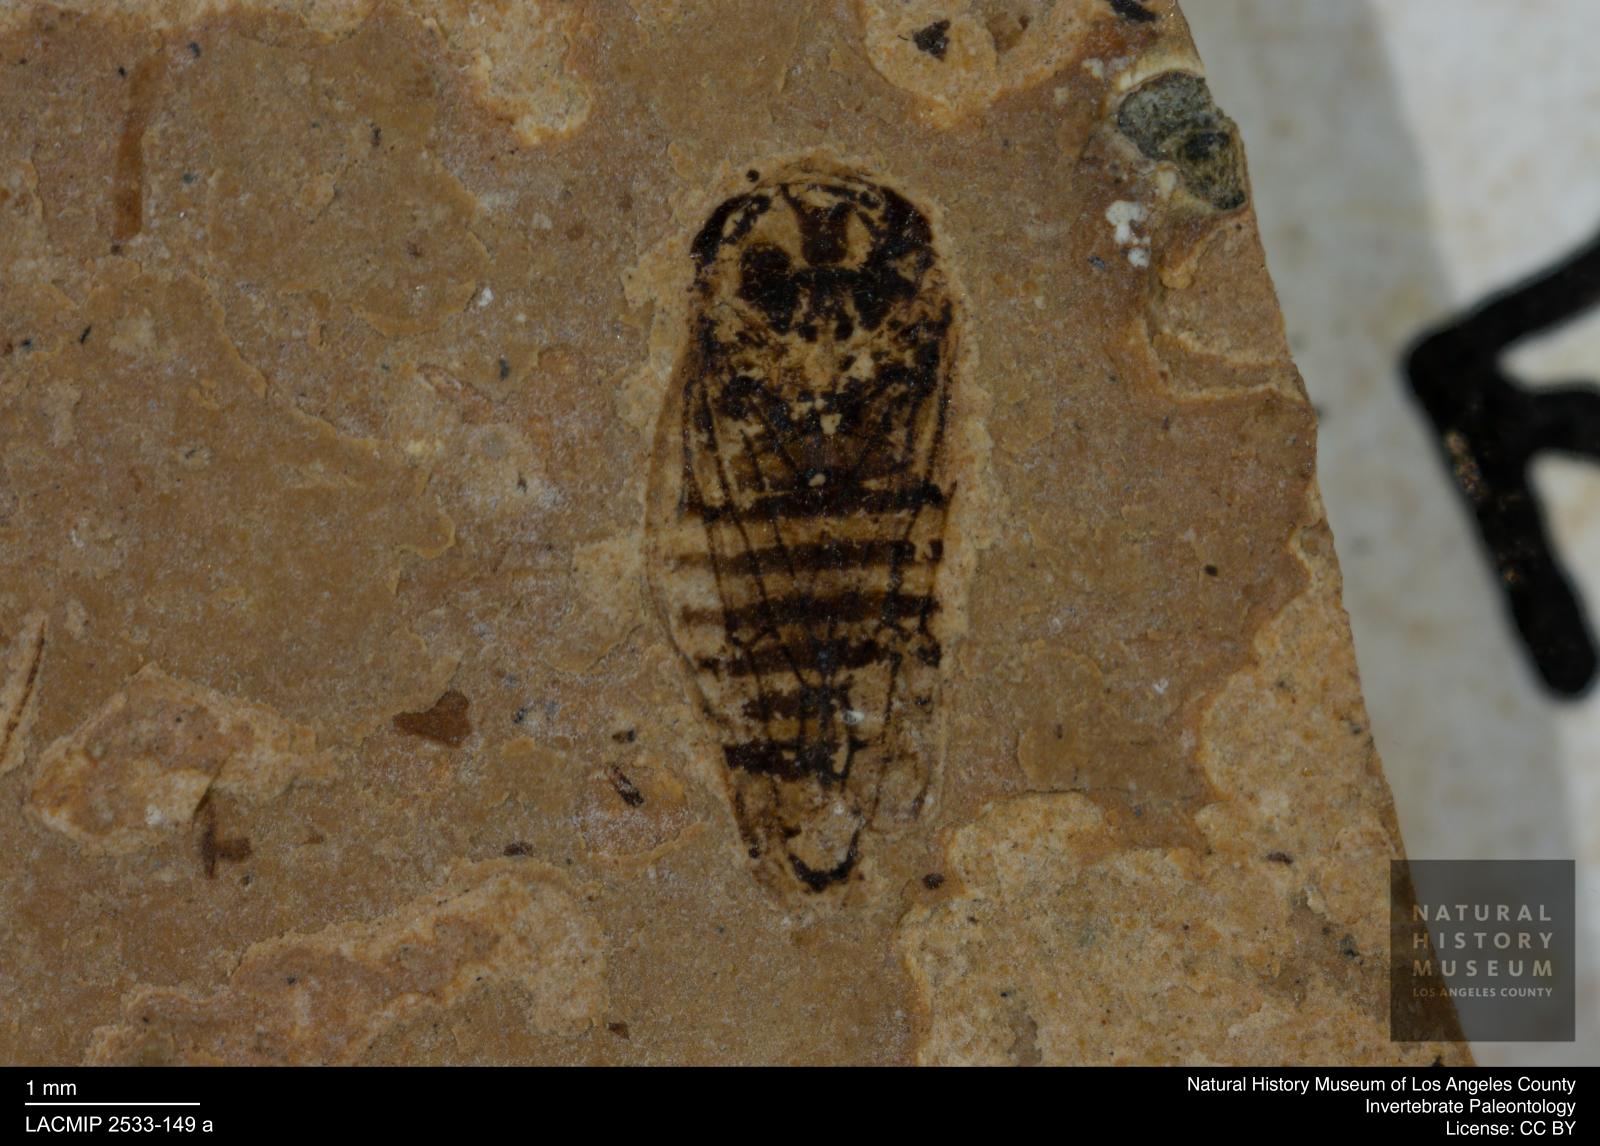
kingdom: Animalia
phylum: Arthropoda
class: Insecta
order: Hemiptera
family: Cicadellidae
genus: Iassus
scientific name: Iassus sepultus
